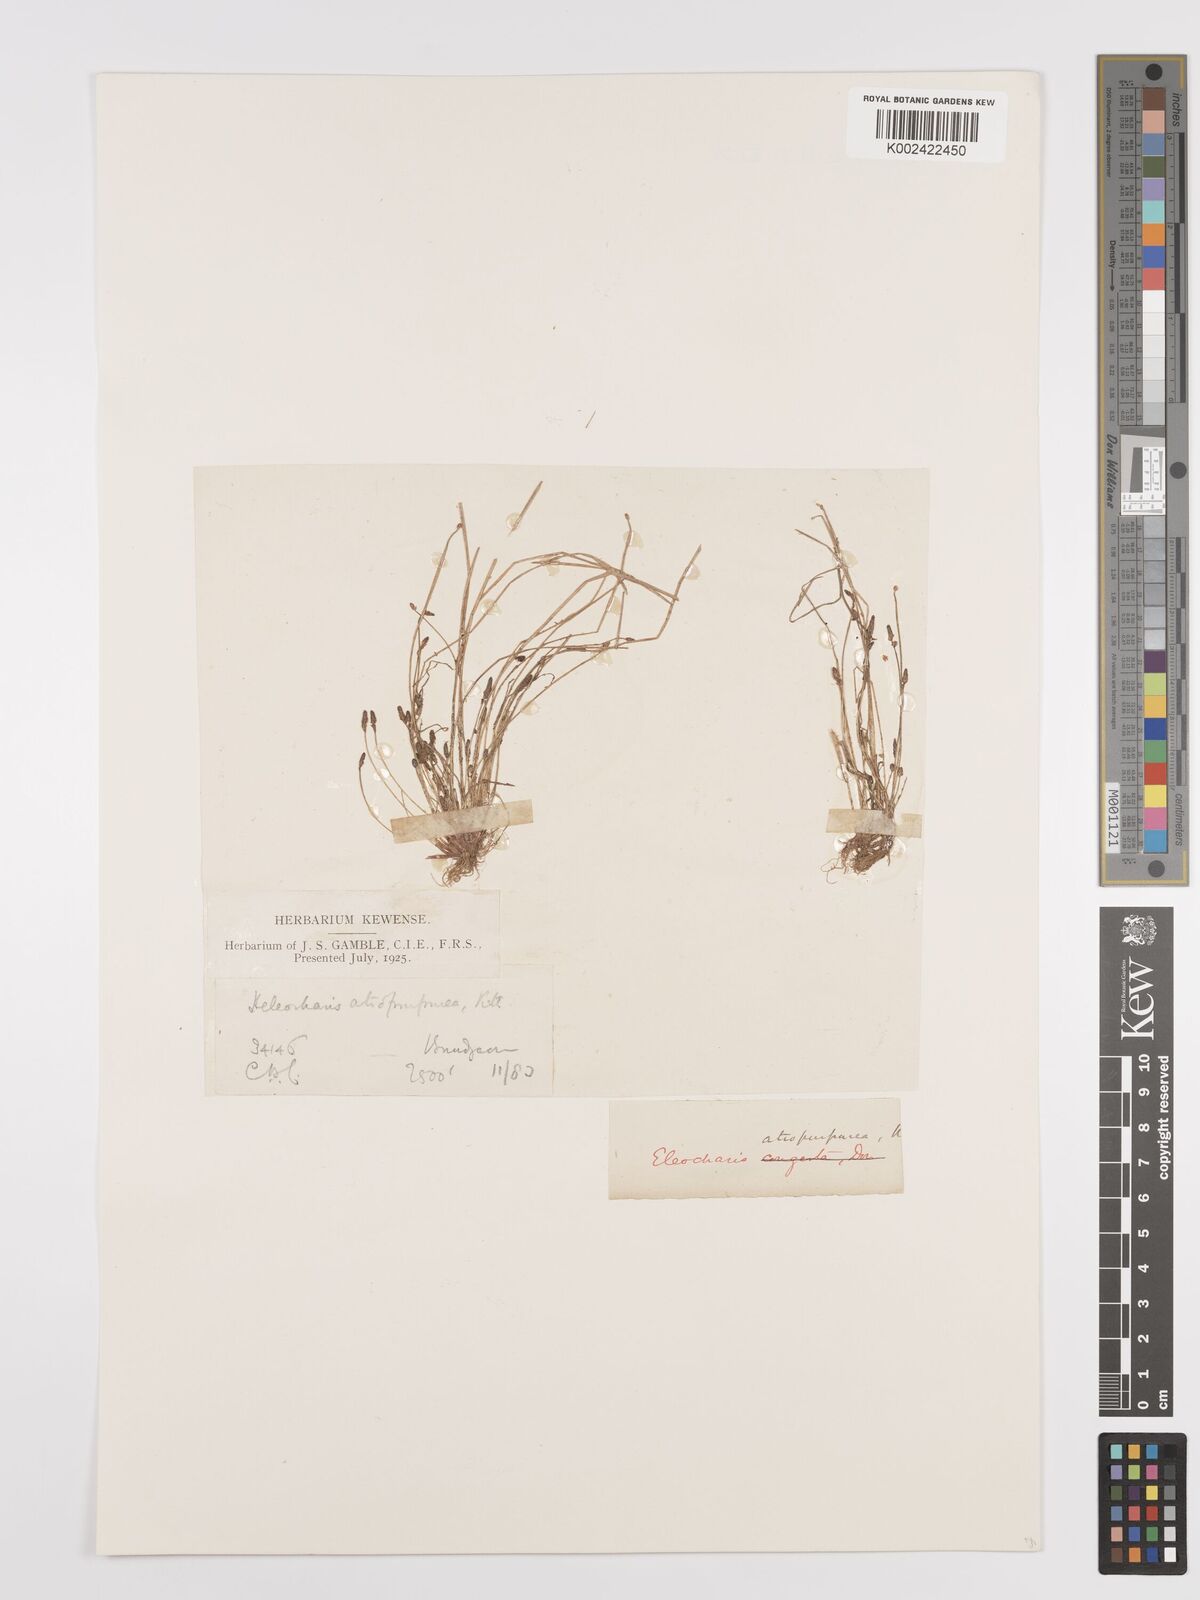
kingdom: Plantae
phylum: Tracheophyta
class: Liliopsida
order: Poales
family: Cyperaceae
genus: Eleocharis
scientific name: Eleocharis atropurpurea
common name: Purple spikerush
